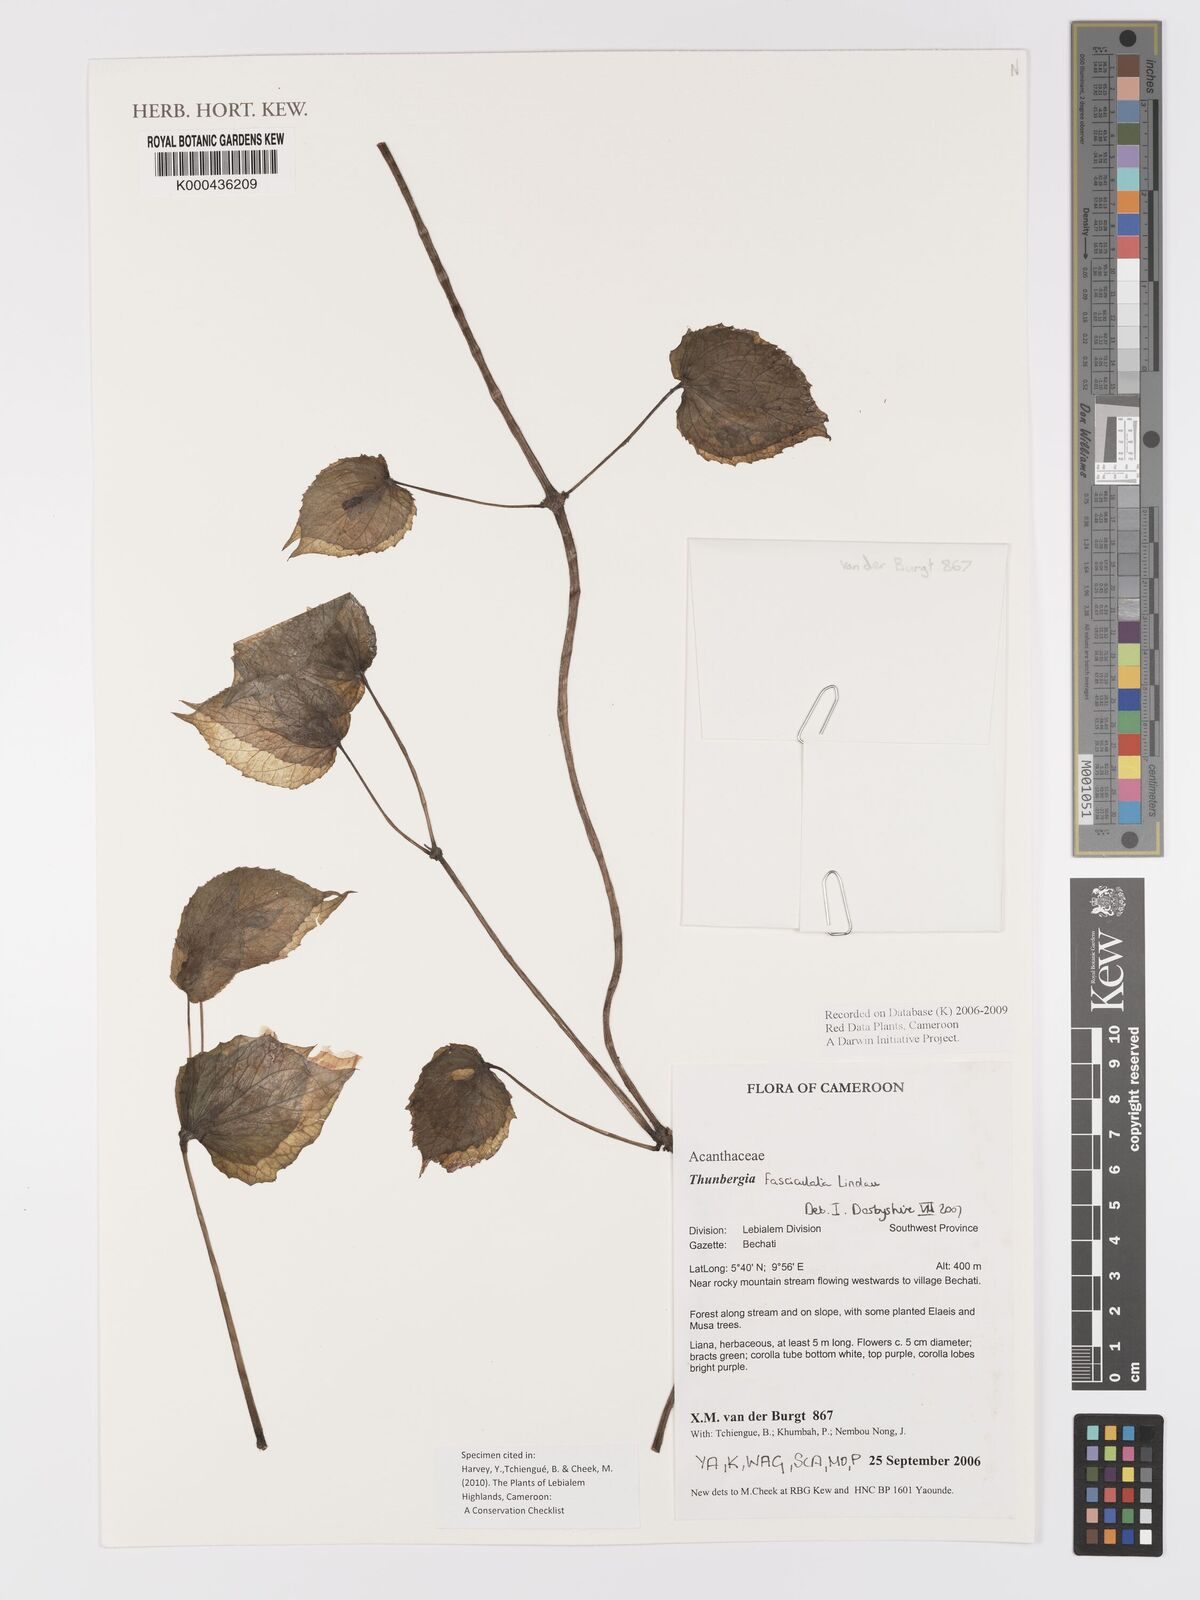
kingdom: Plantae
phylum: Tracheophyta
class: Magnoliopsida
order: Lamiales
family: Acanthaceae
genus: Thunbergia
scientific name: Thunbergia fasciculata
